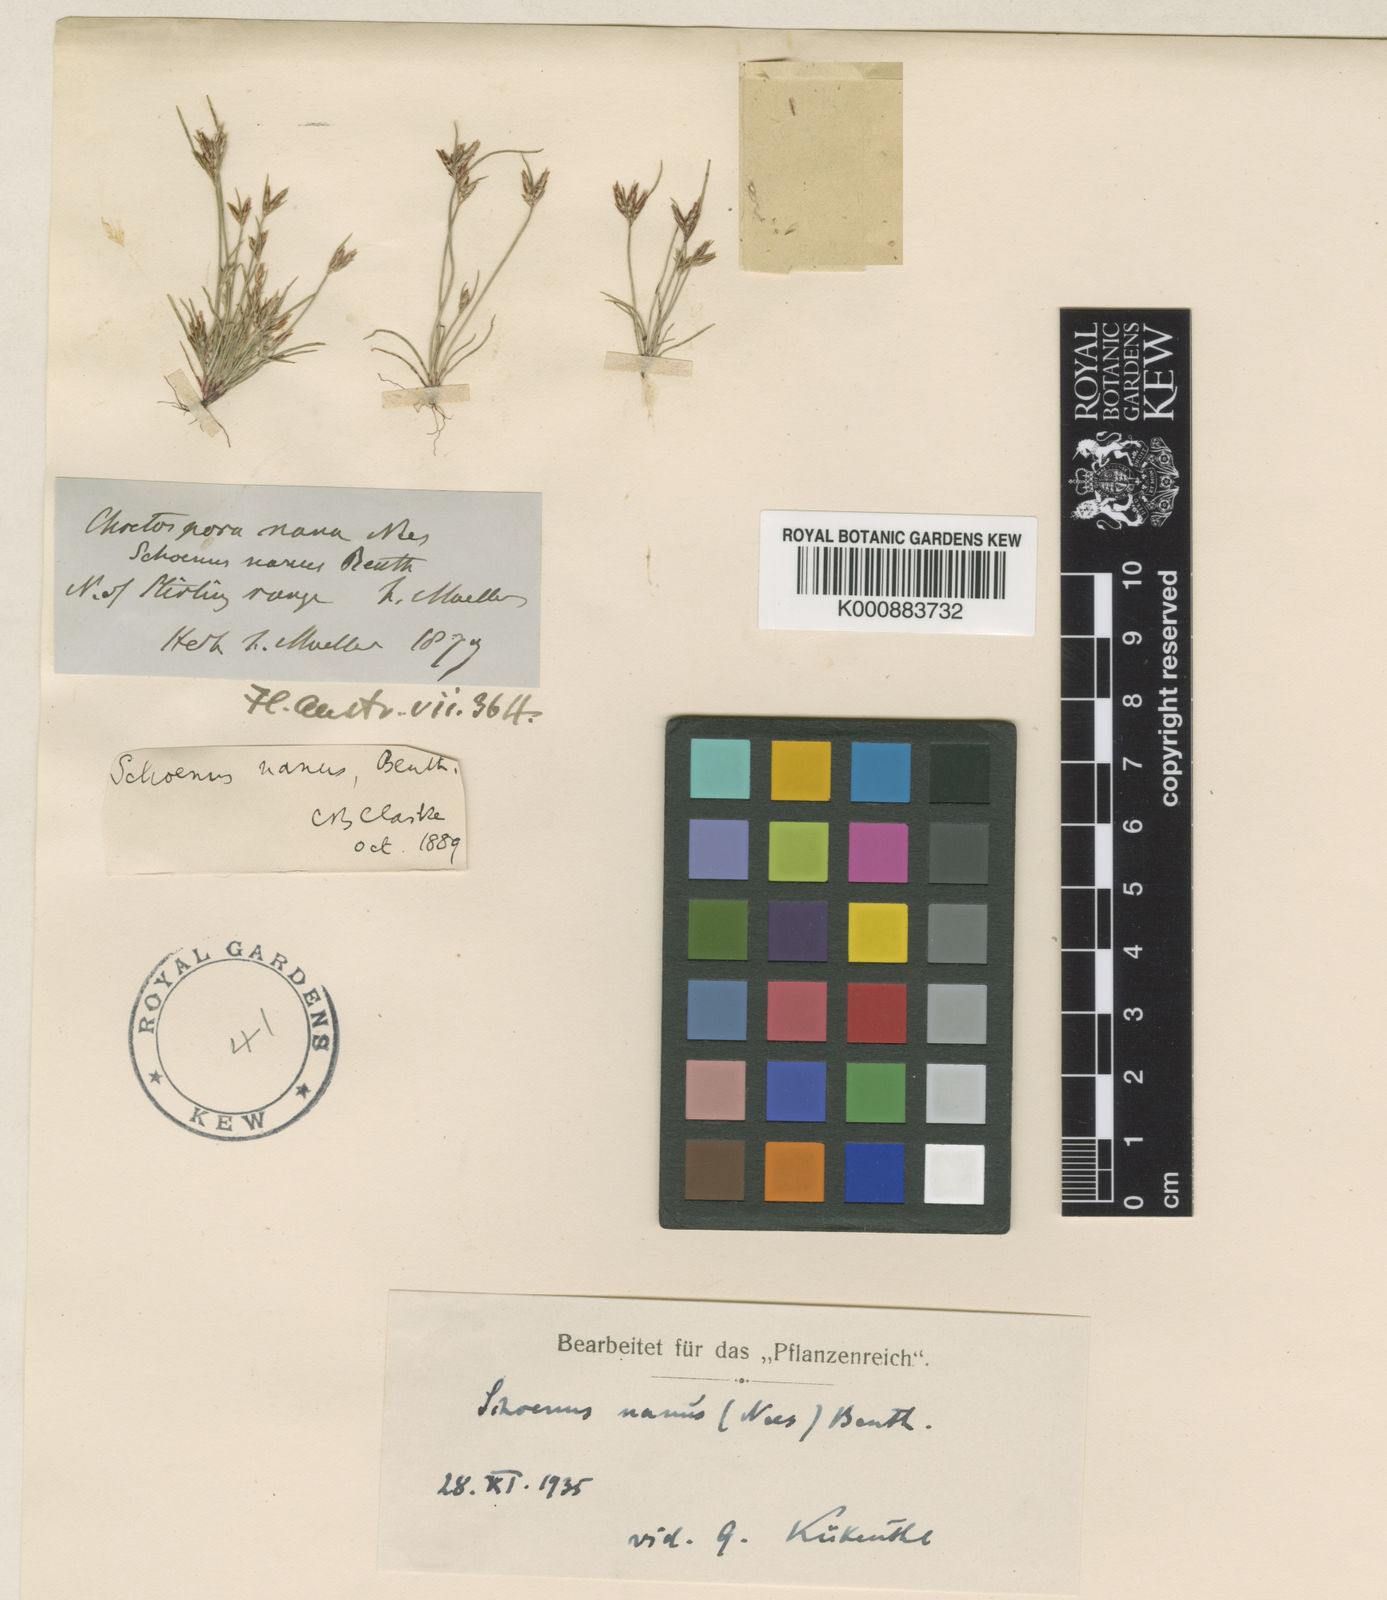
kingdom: Plantae
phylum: Tracheophyta
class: Liliopsida
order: Poales
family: Cyperaceae
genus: Schoenus
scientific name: Schoenus nanus
